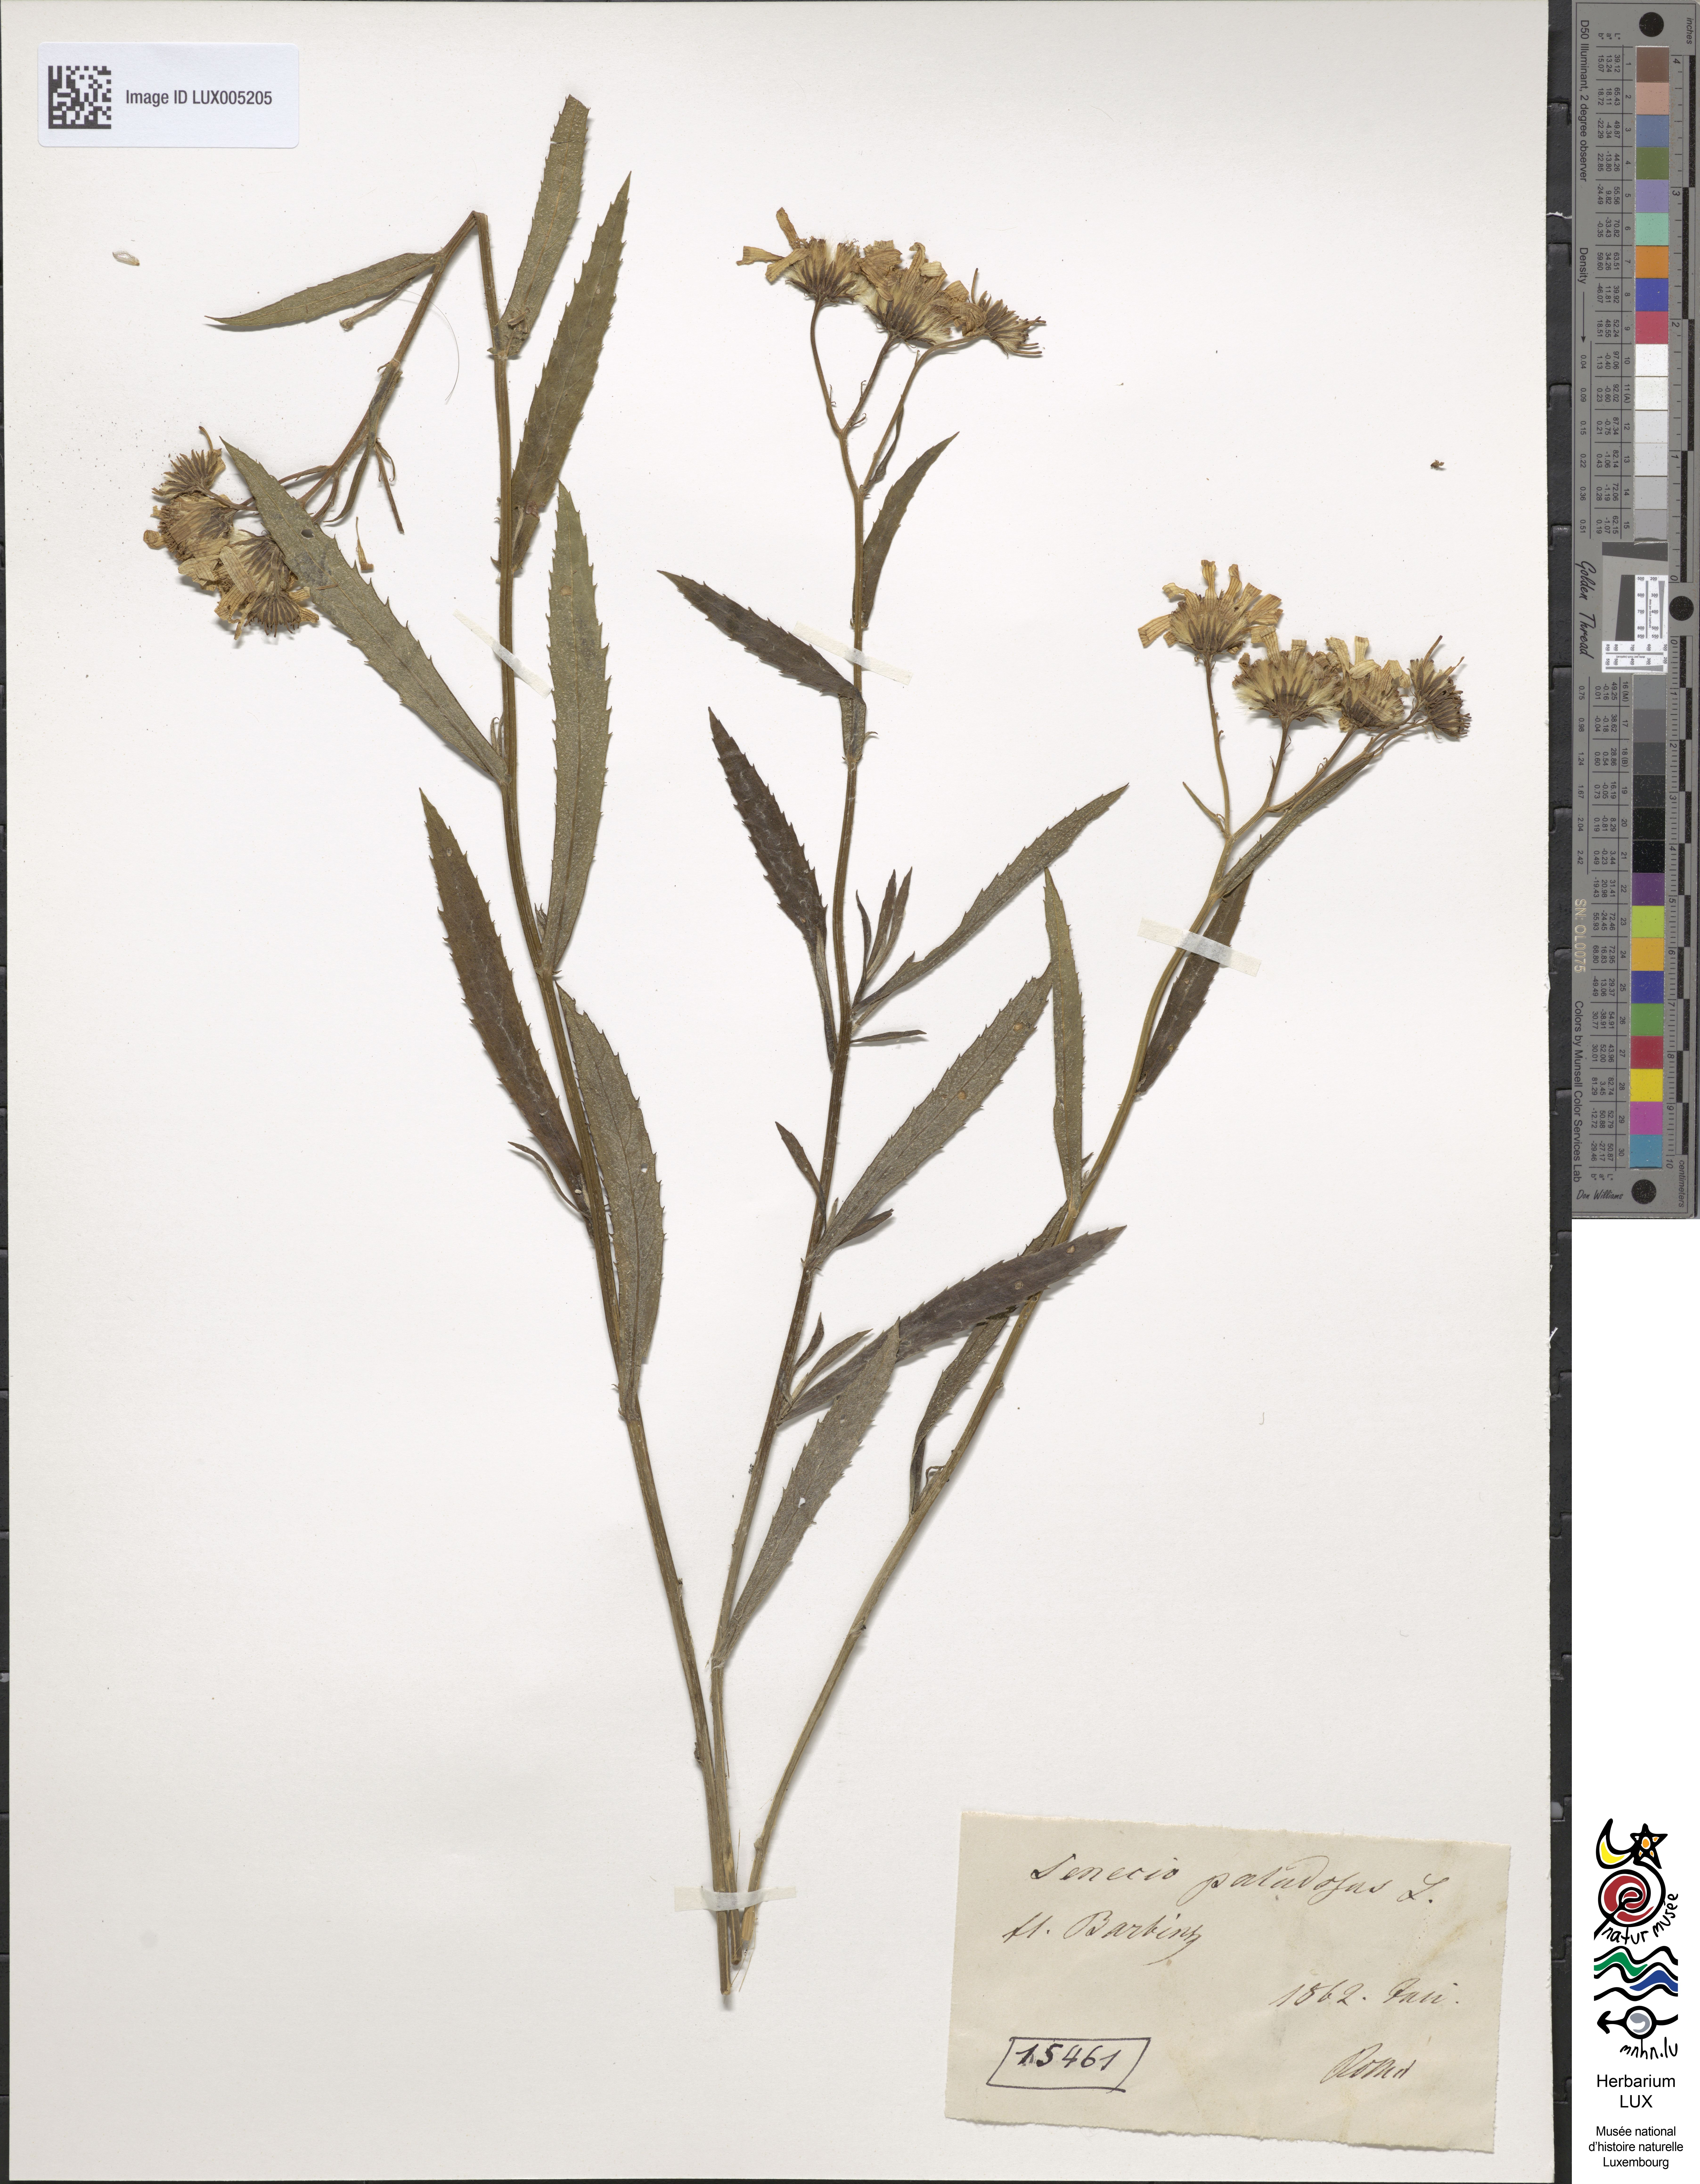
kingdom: Plantae
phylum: Tracheophyta
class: Magnoliopsida
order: Asterales
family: Asteraceae
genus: Jacobaea
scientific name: Jacobaea paludosa
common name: Fen ragwort
